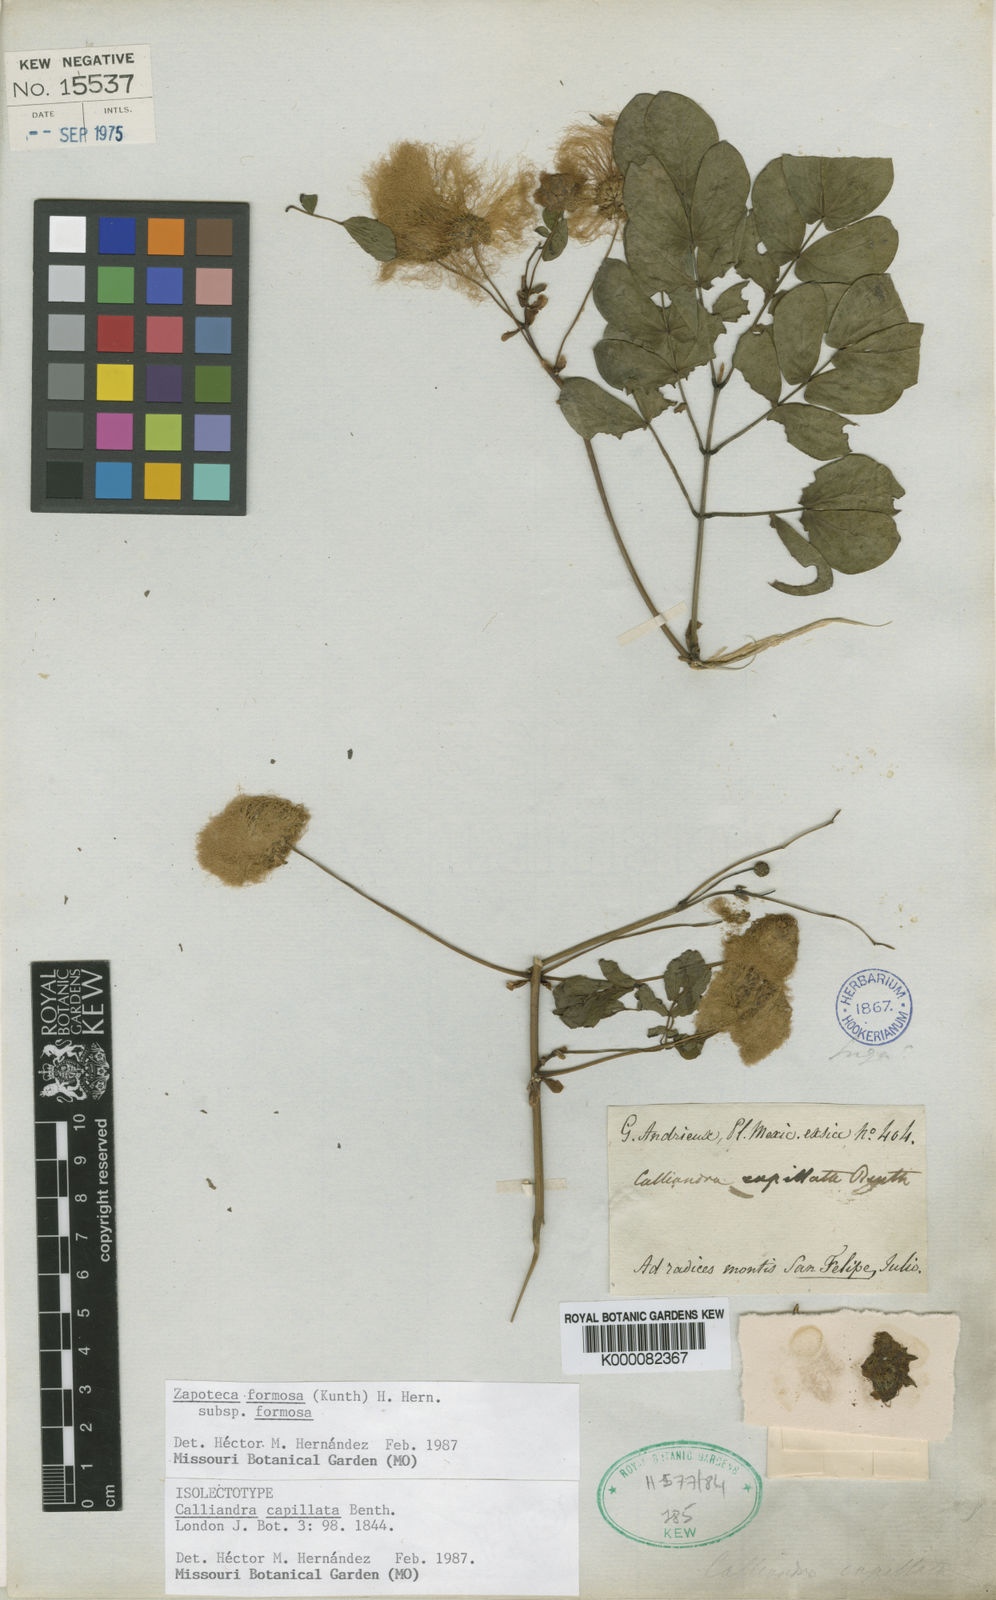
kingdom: Plantae
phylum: Tracheophyta
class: Magnoliopsida
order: Fabales
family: Fabaceae
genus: Zapoteca
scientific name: Zapoteca formosa
